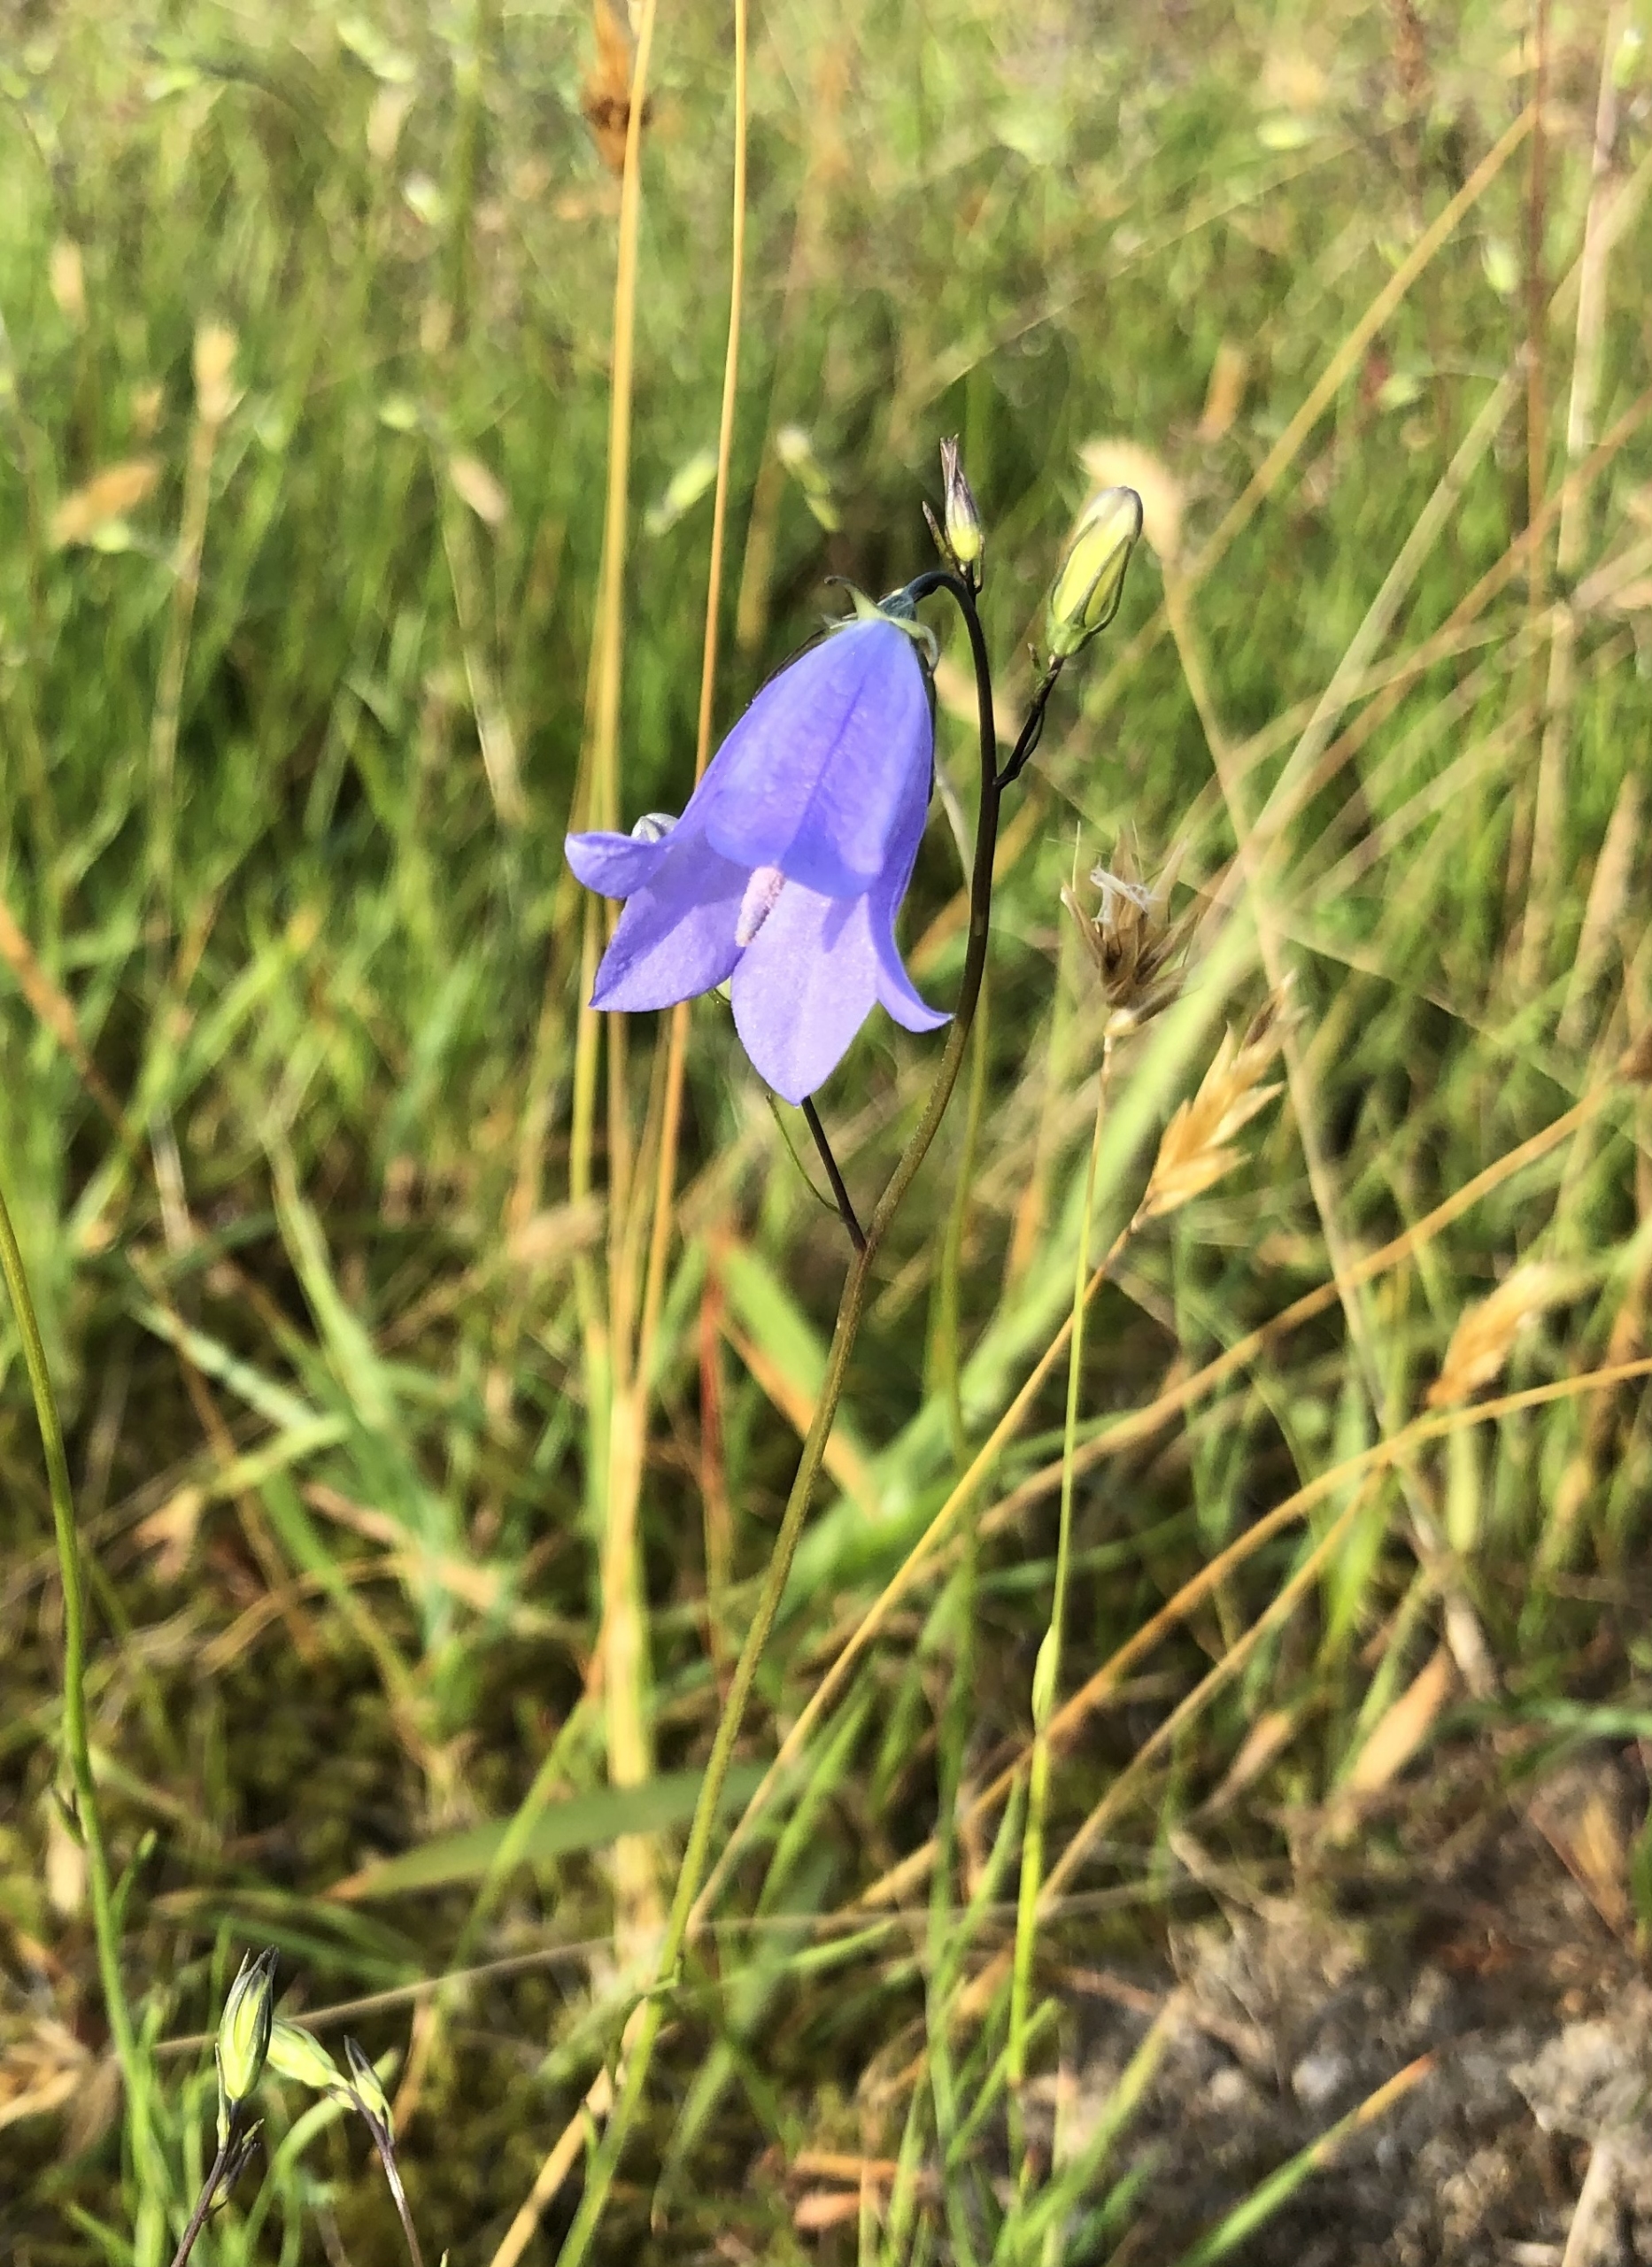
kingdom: Plantae
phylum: Tracheophyta
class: Magnoliopsida
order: Asterales
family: Campanulaceae
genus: Campanula
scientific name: Campanula rotundifolia
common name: Liden klokke
